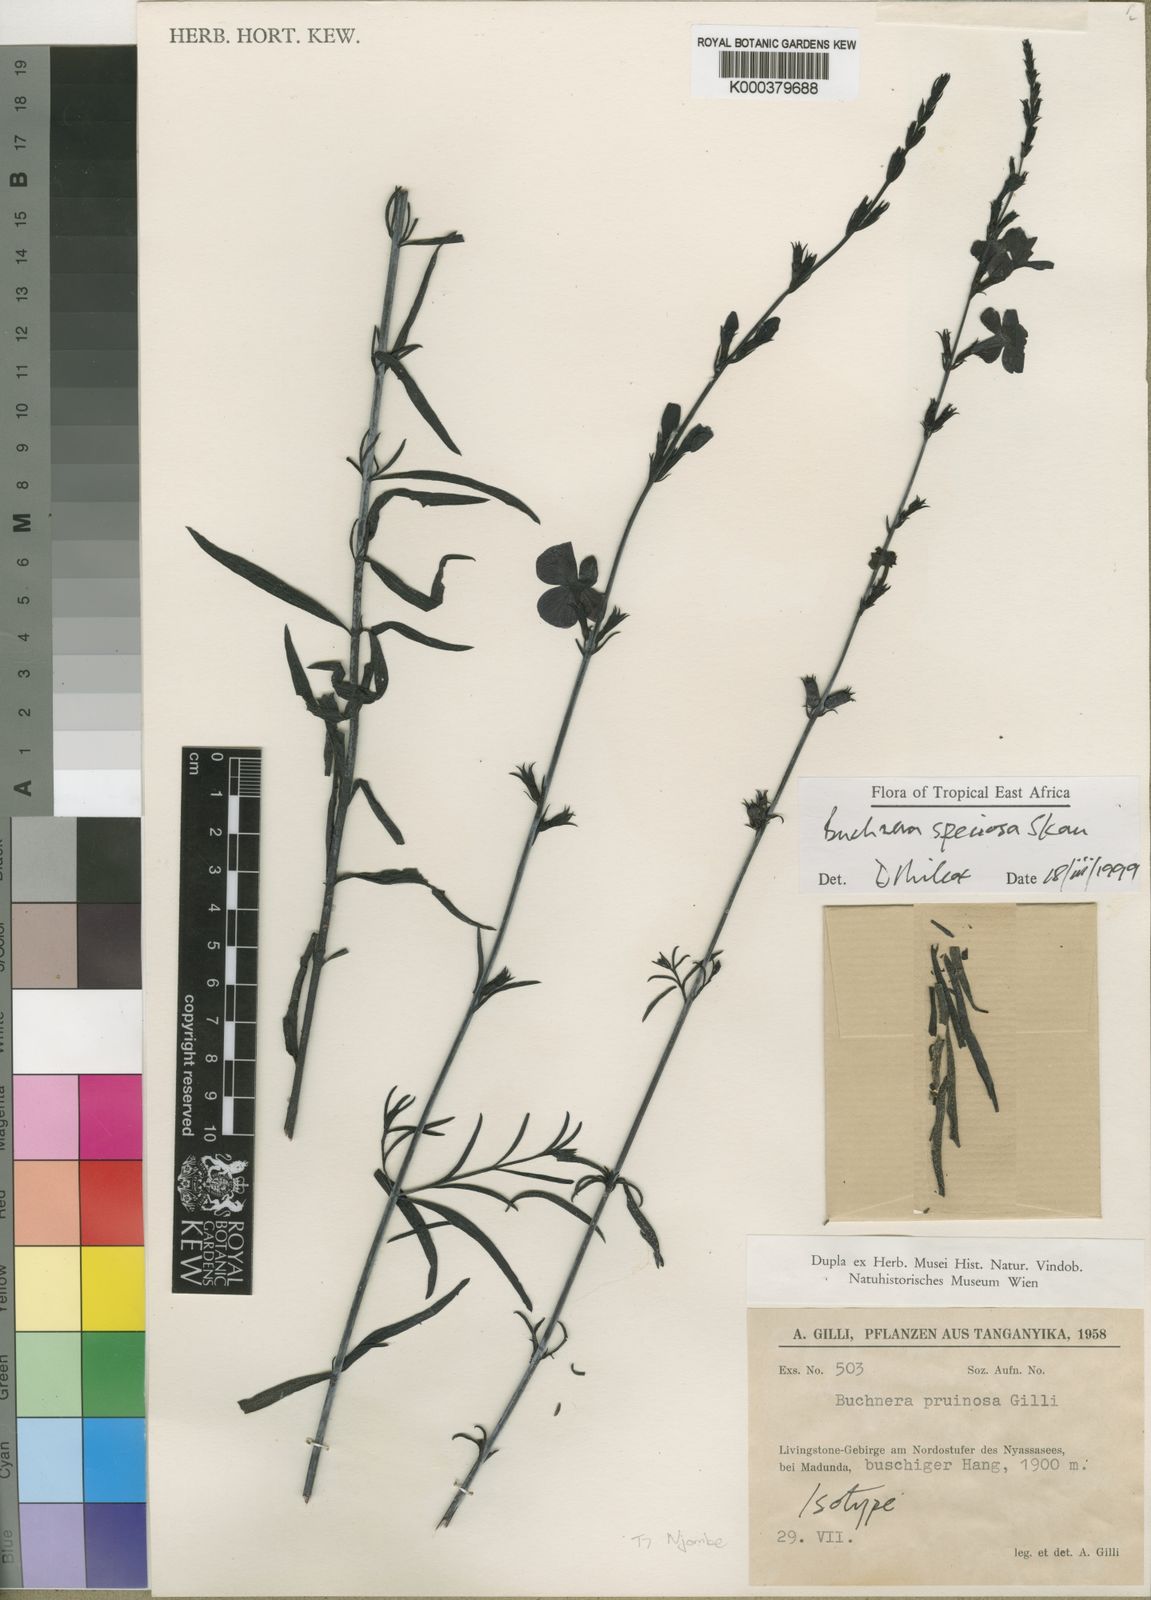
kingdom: Plantae
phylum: Tracheophyta
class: Magnoliopsida
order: Lamiales
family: Orobanchaceae
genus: Buchnera
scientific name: Buchnera speciosa
